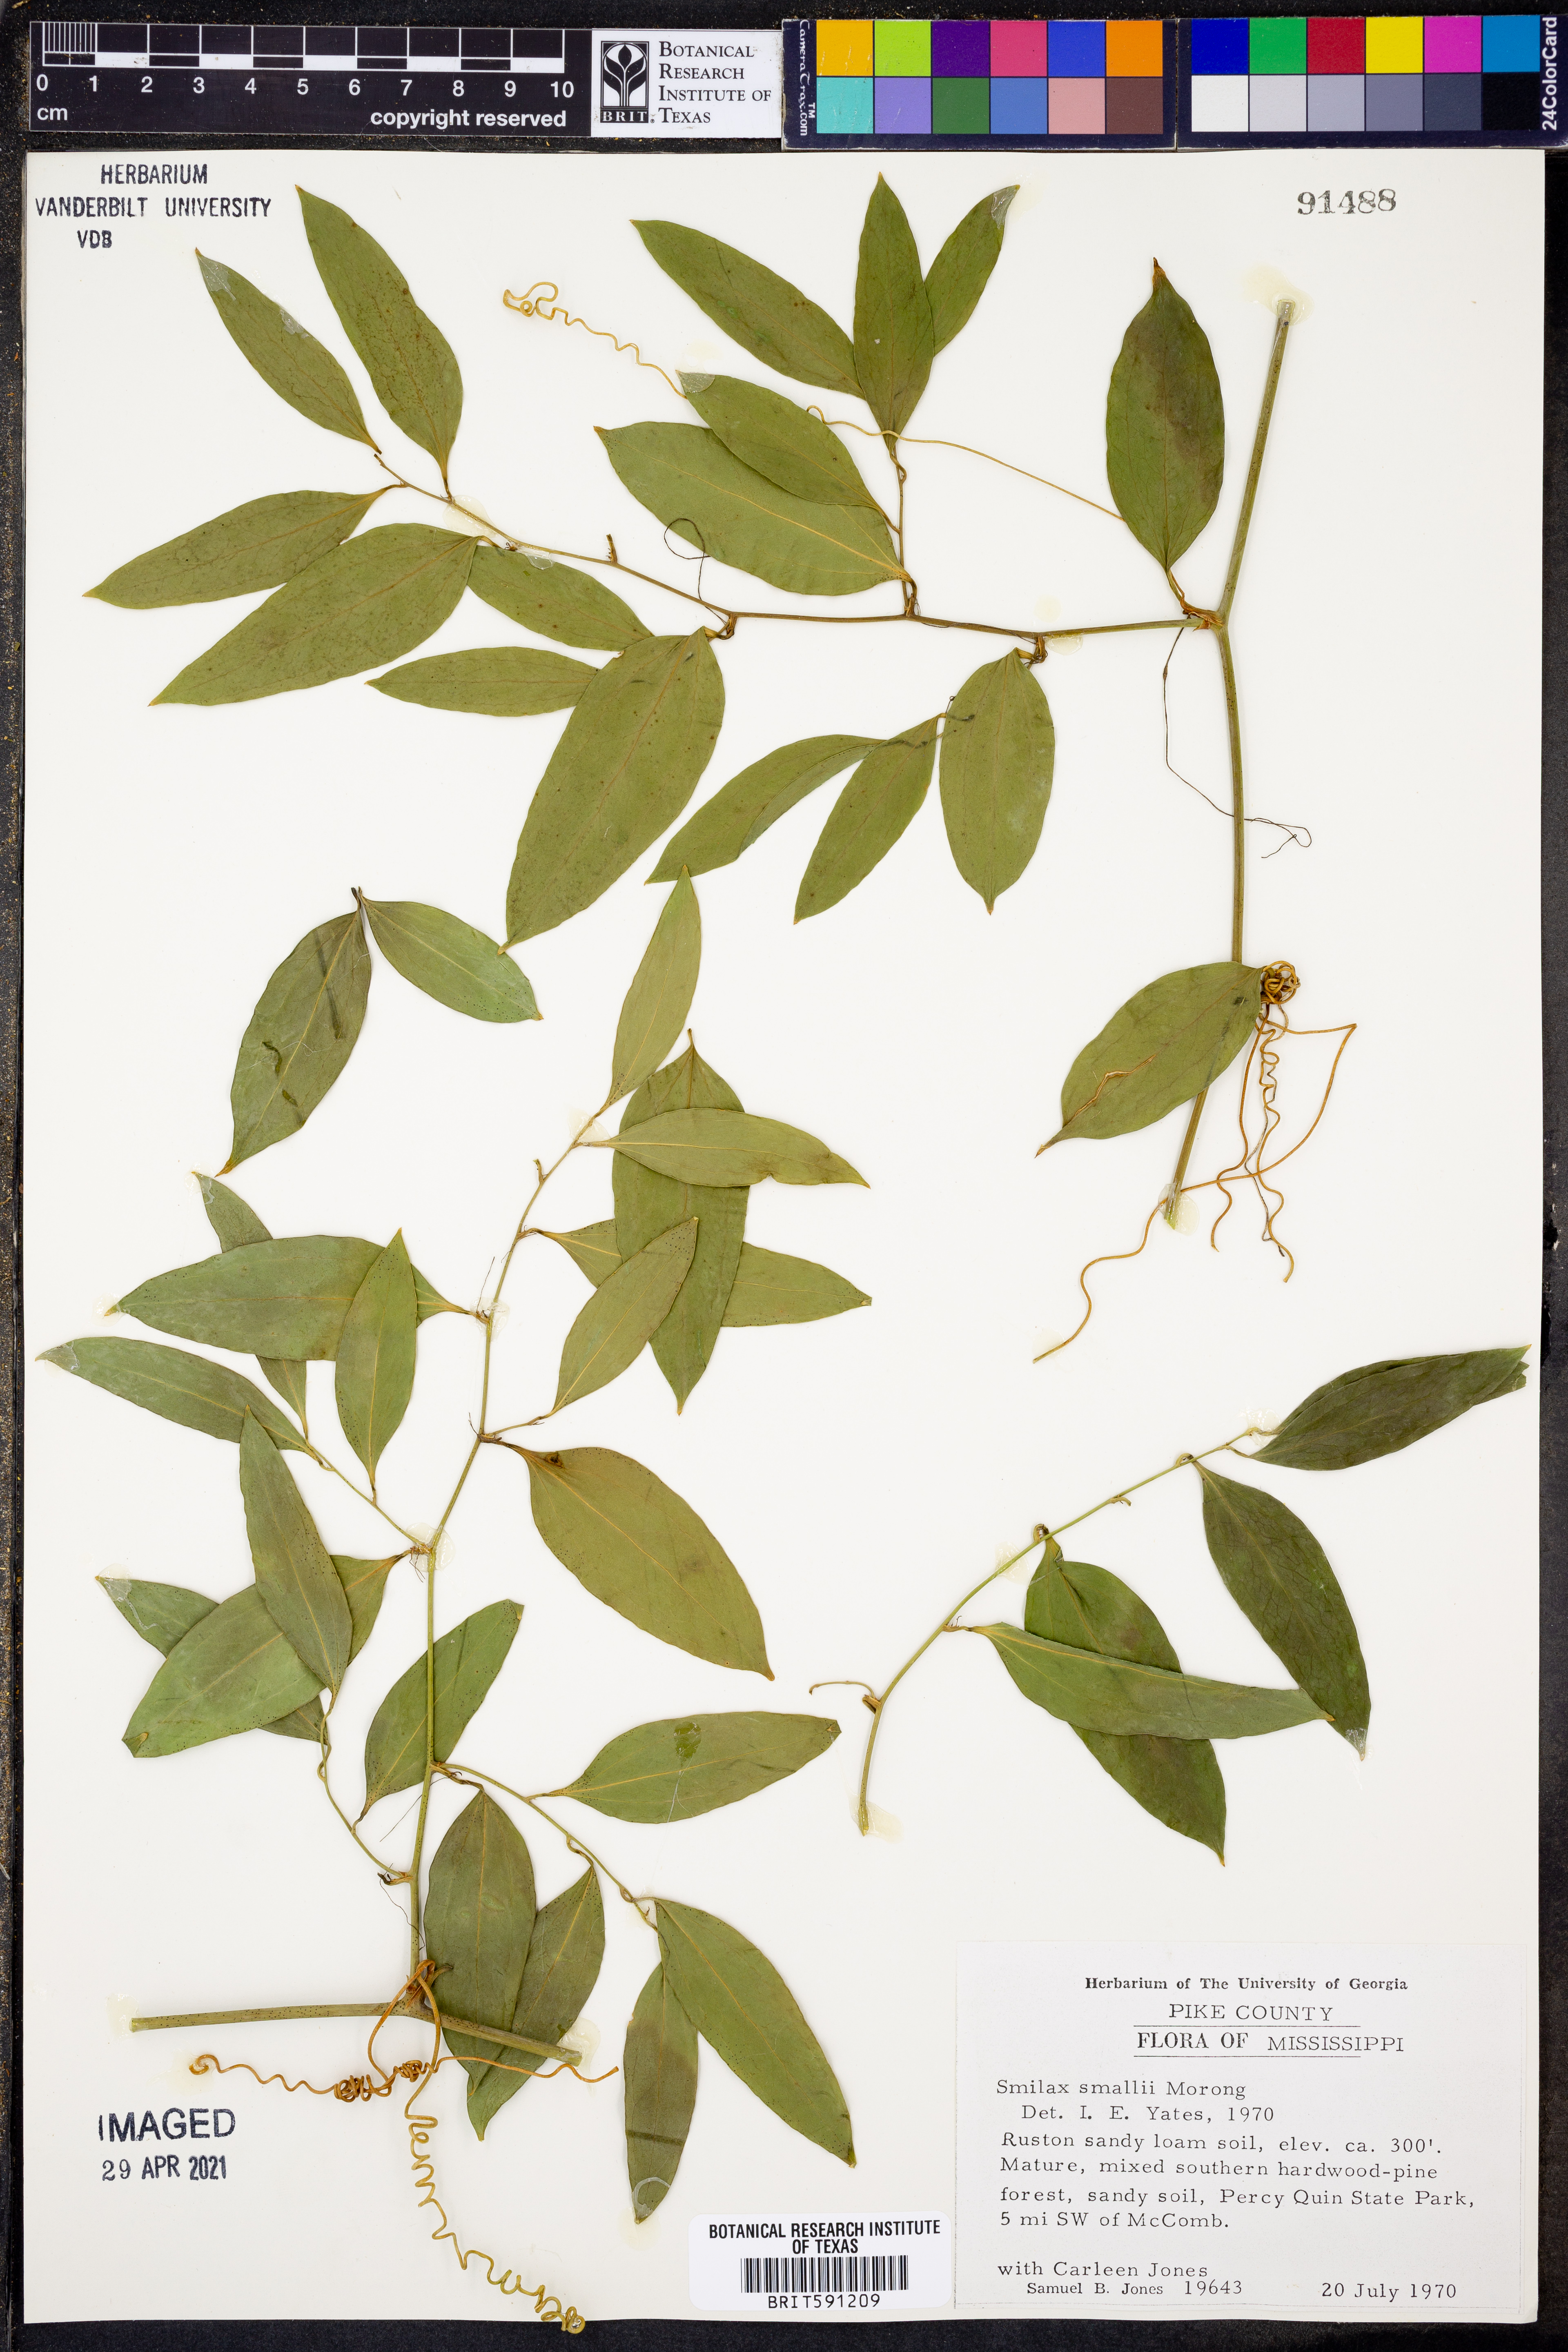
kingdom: Plantae
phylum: Tracheophyta
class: Liliopsida
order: Liliales
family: Smilacaceae
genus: Smilax
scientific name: Smilax maritima
